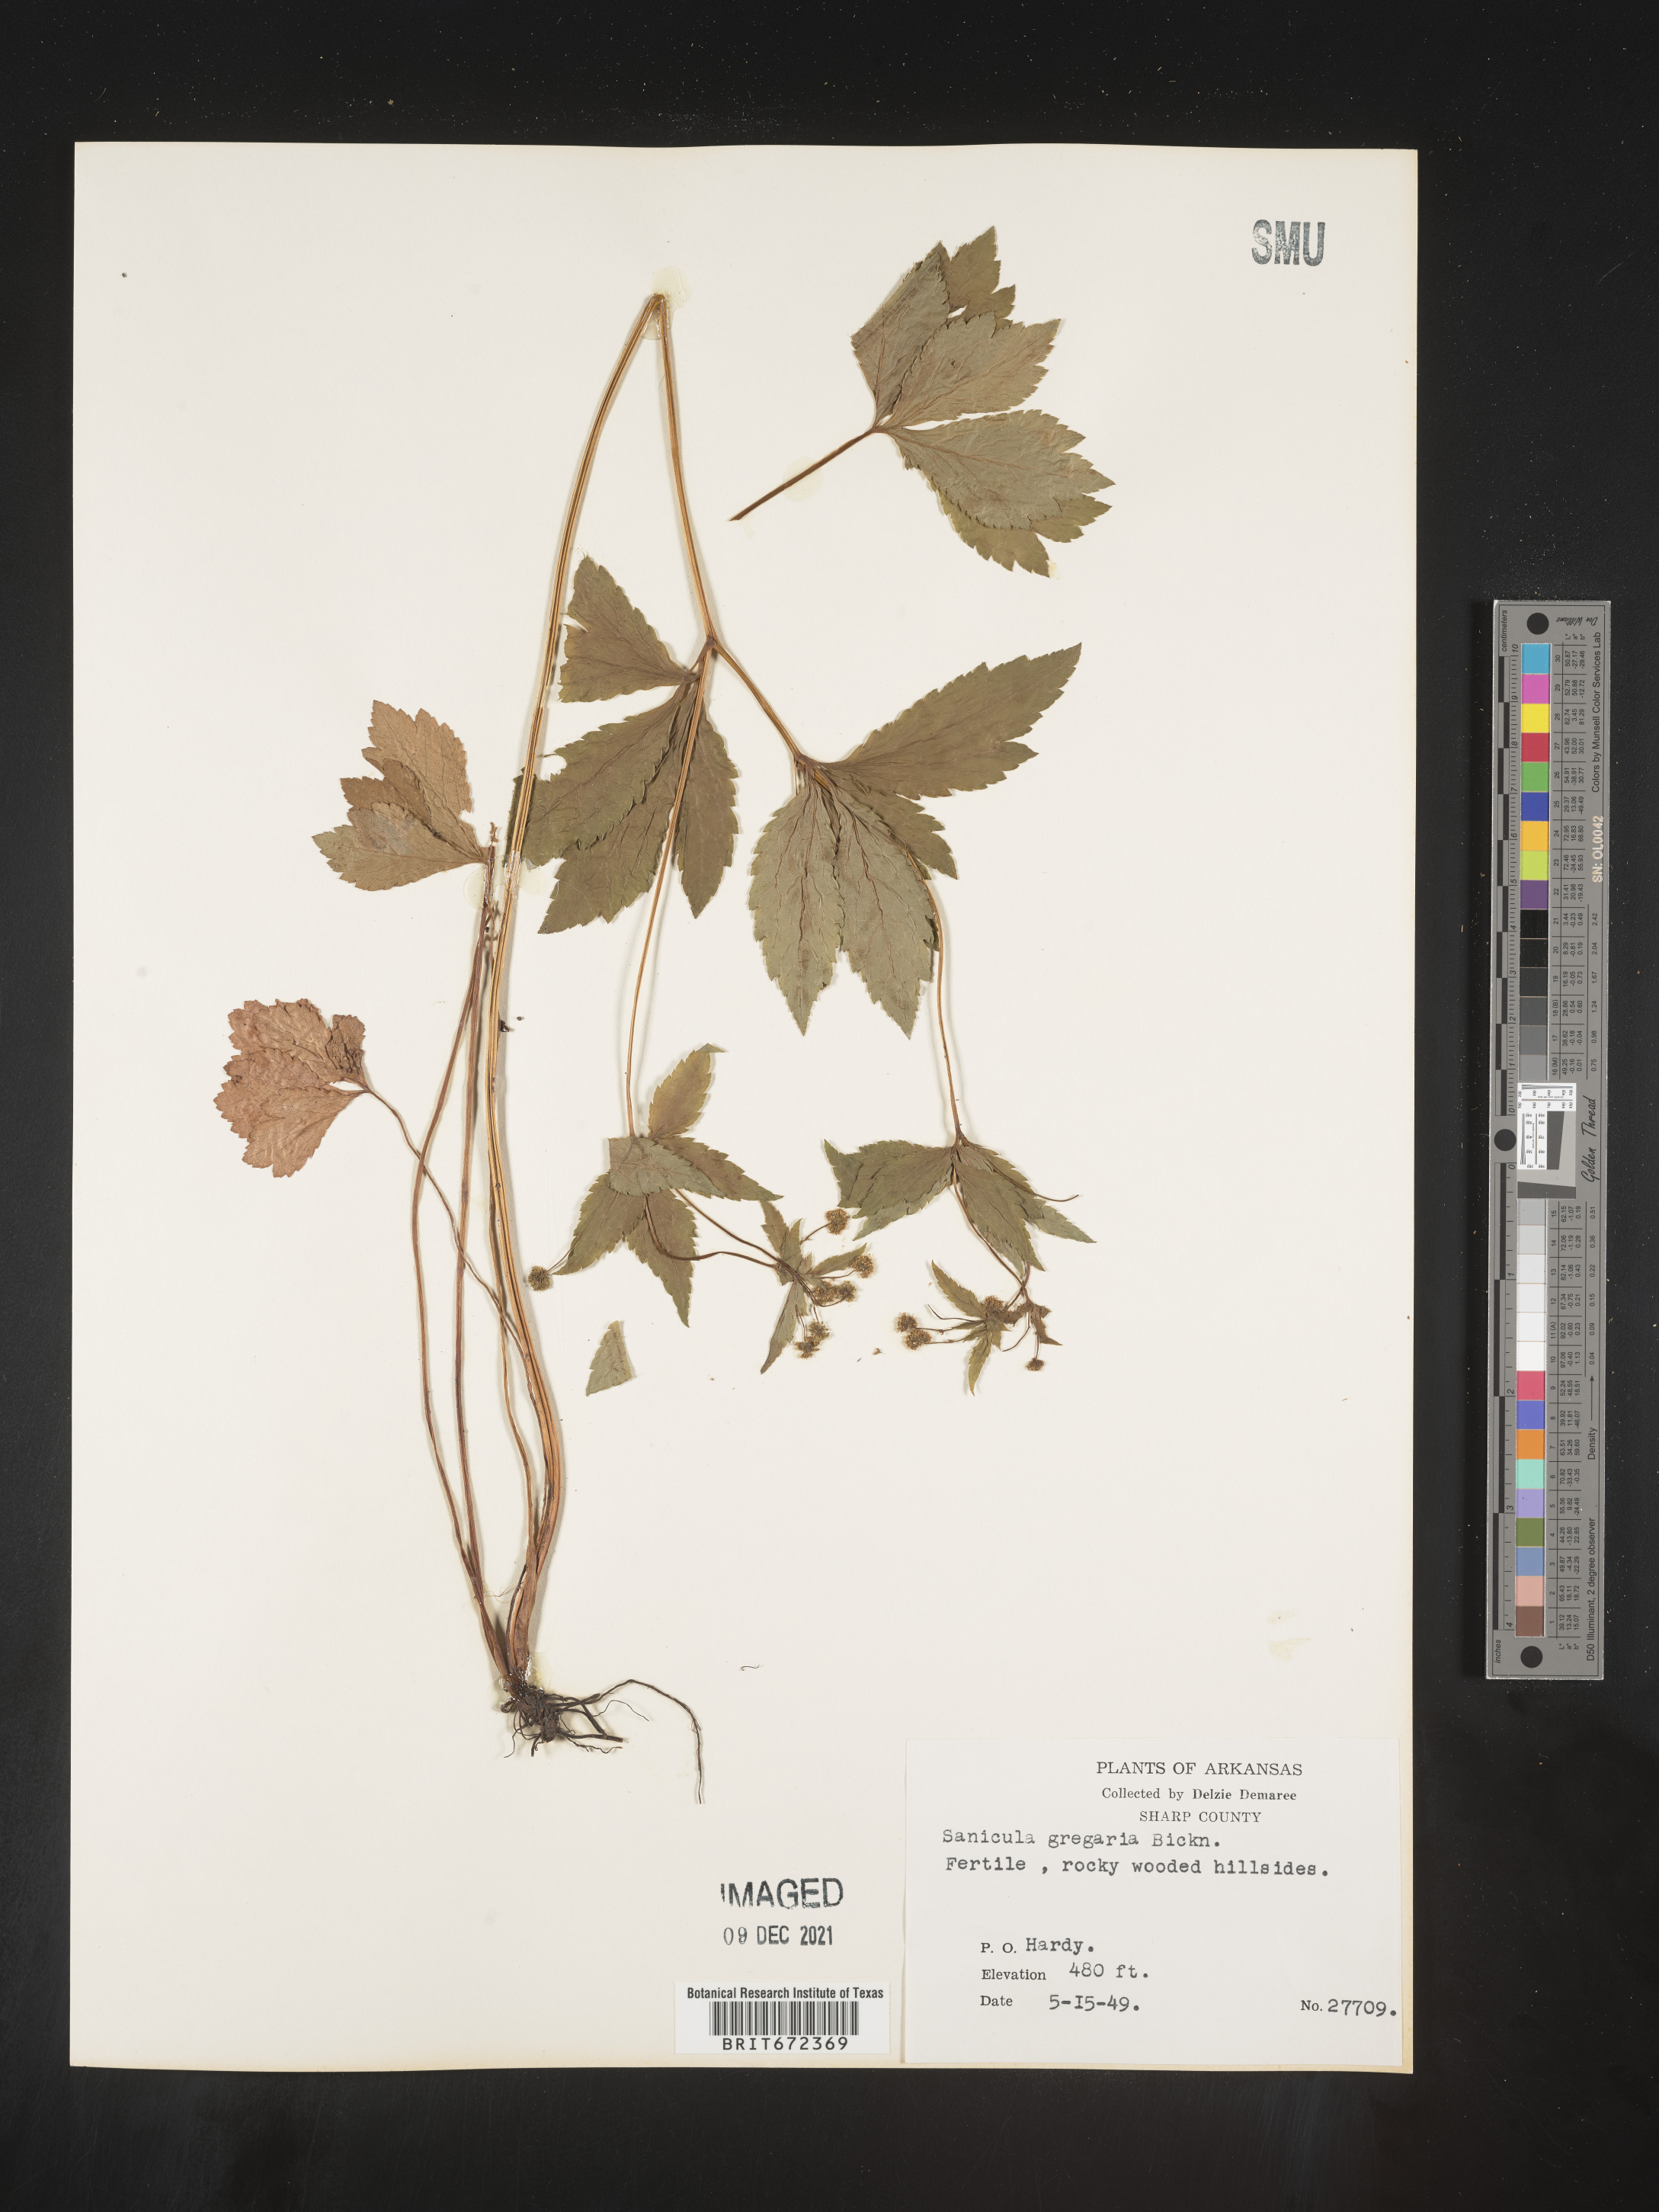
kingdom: Plantae
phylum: Tracheophyta
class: Magnoliopsida
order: Apiales
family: Apiaceae
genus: Sanicula
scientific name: Sanicula odorata
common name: Cluster sanicle
